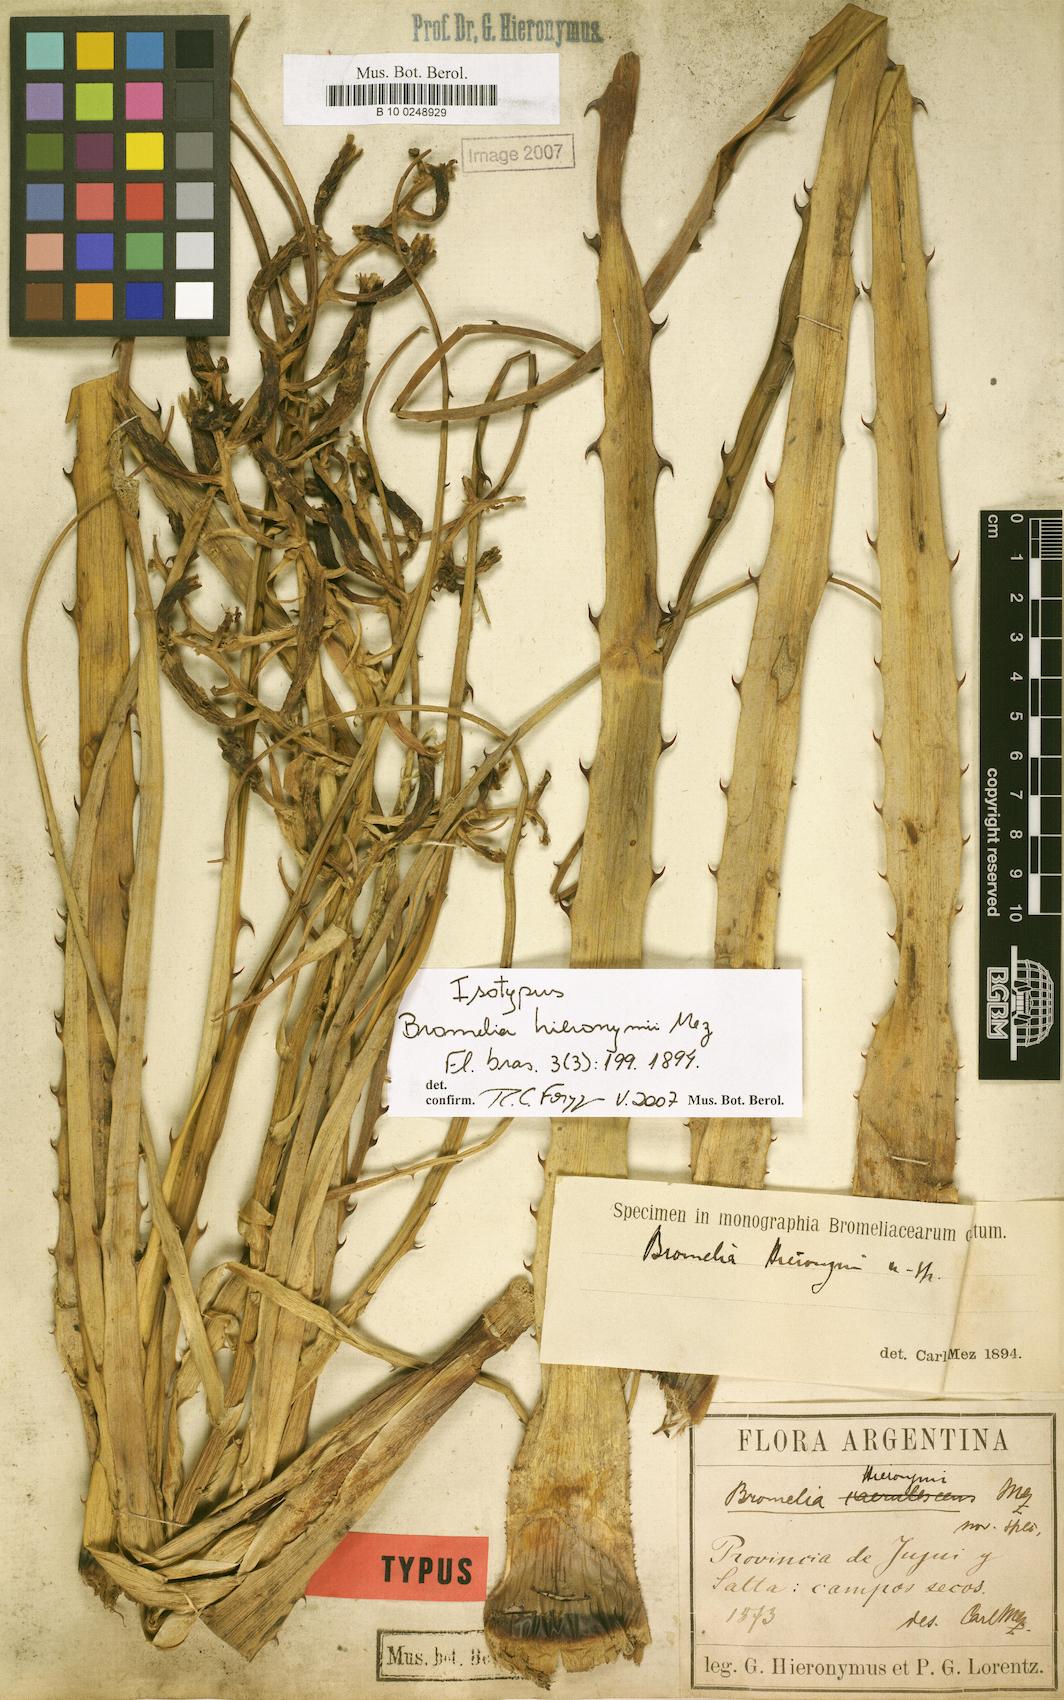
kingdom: Plantae
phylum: Tracheophyta
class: Liliopsida
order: Poales
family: Bromeliaceae
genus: Bromelia
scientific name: Bromelia hieronymi
